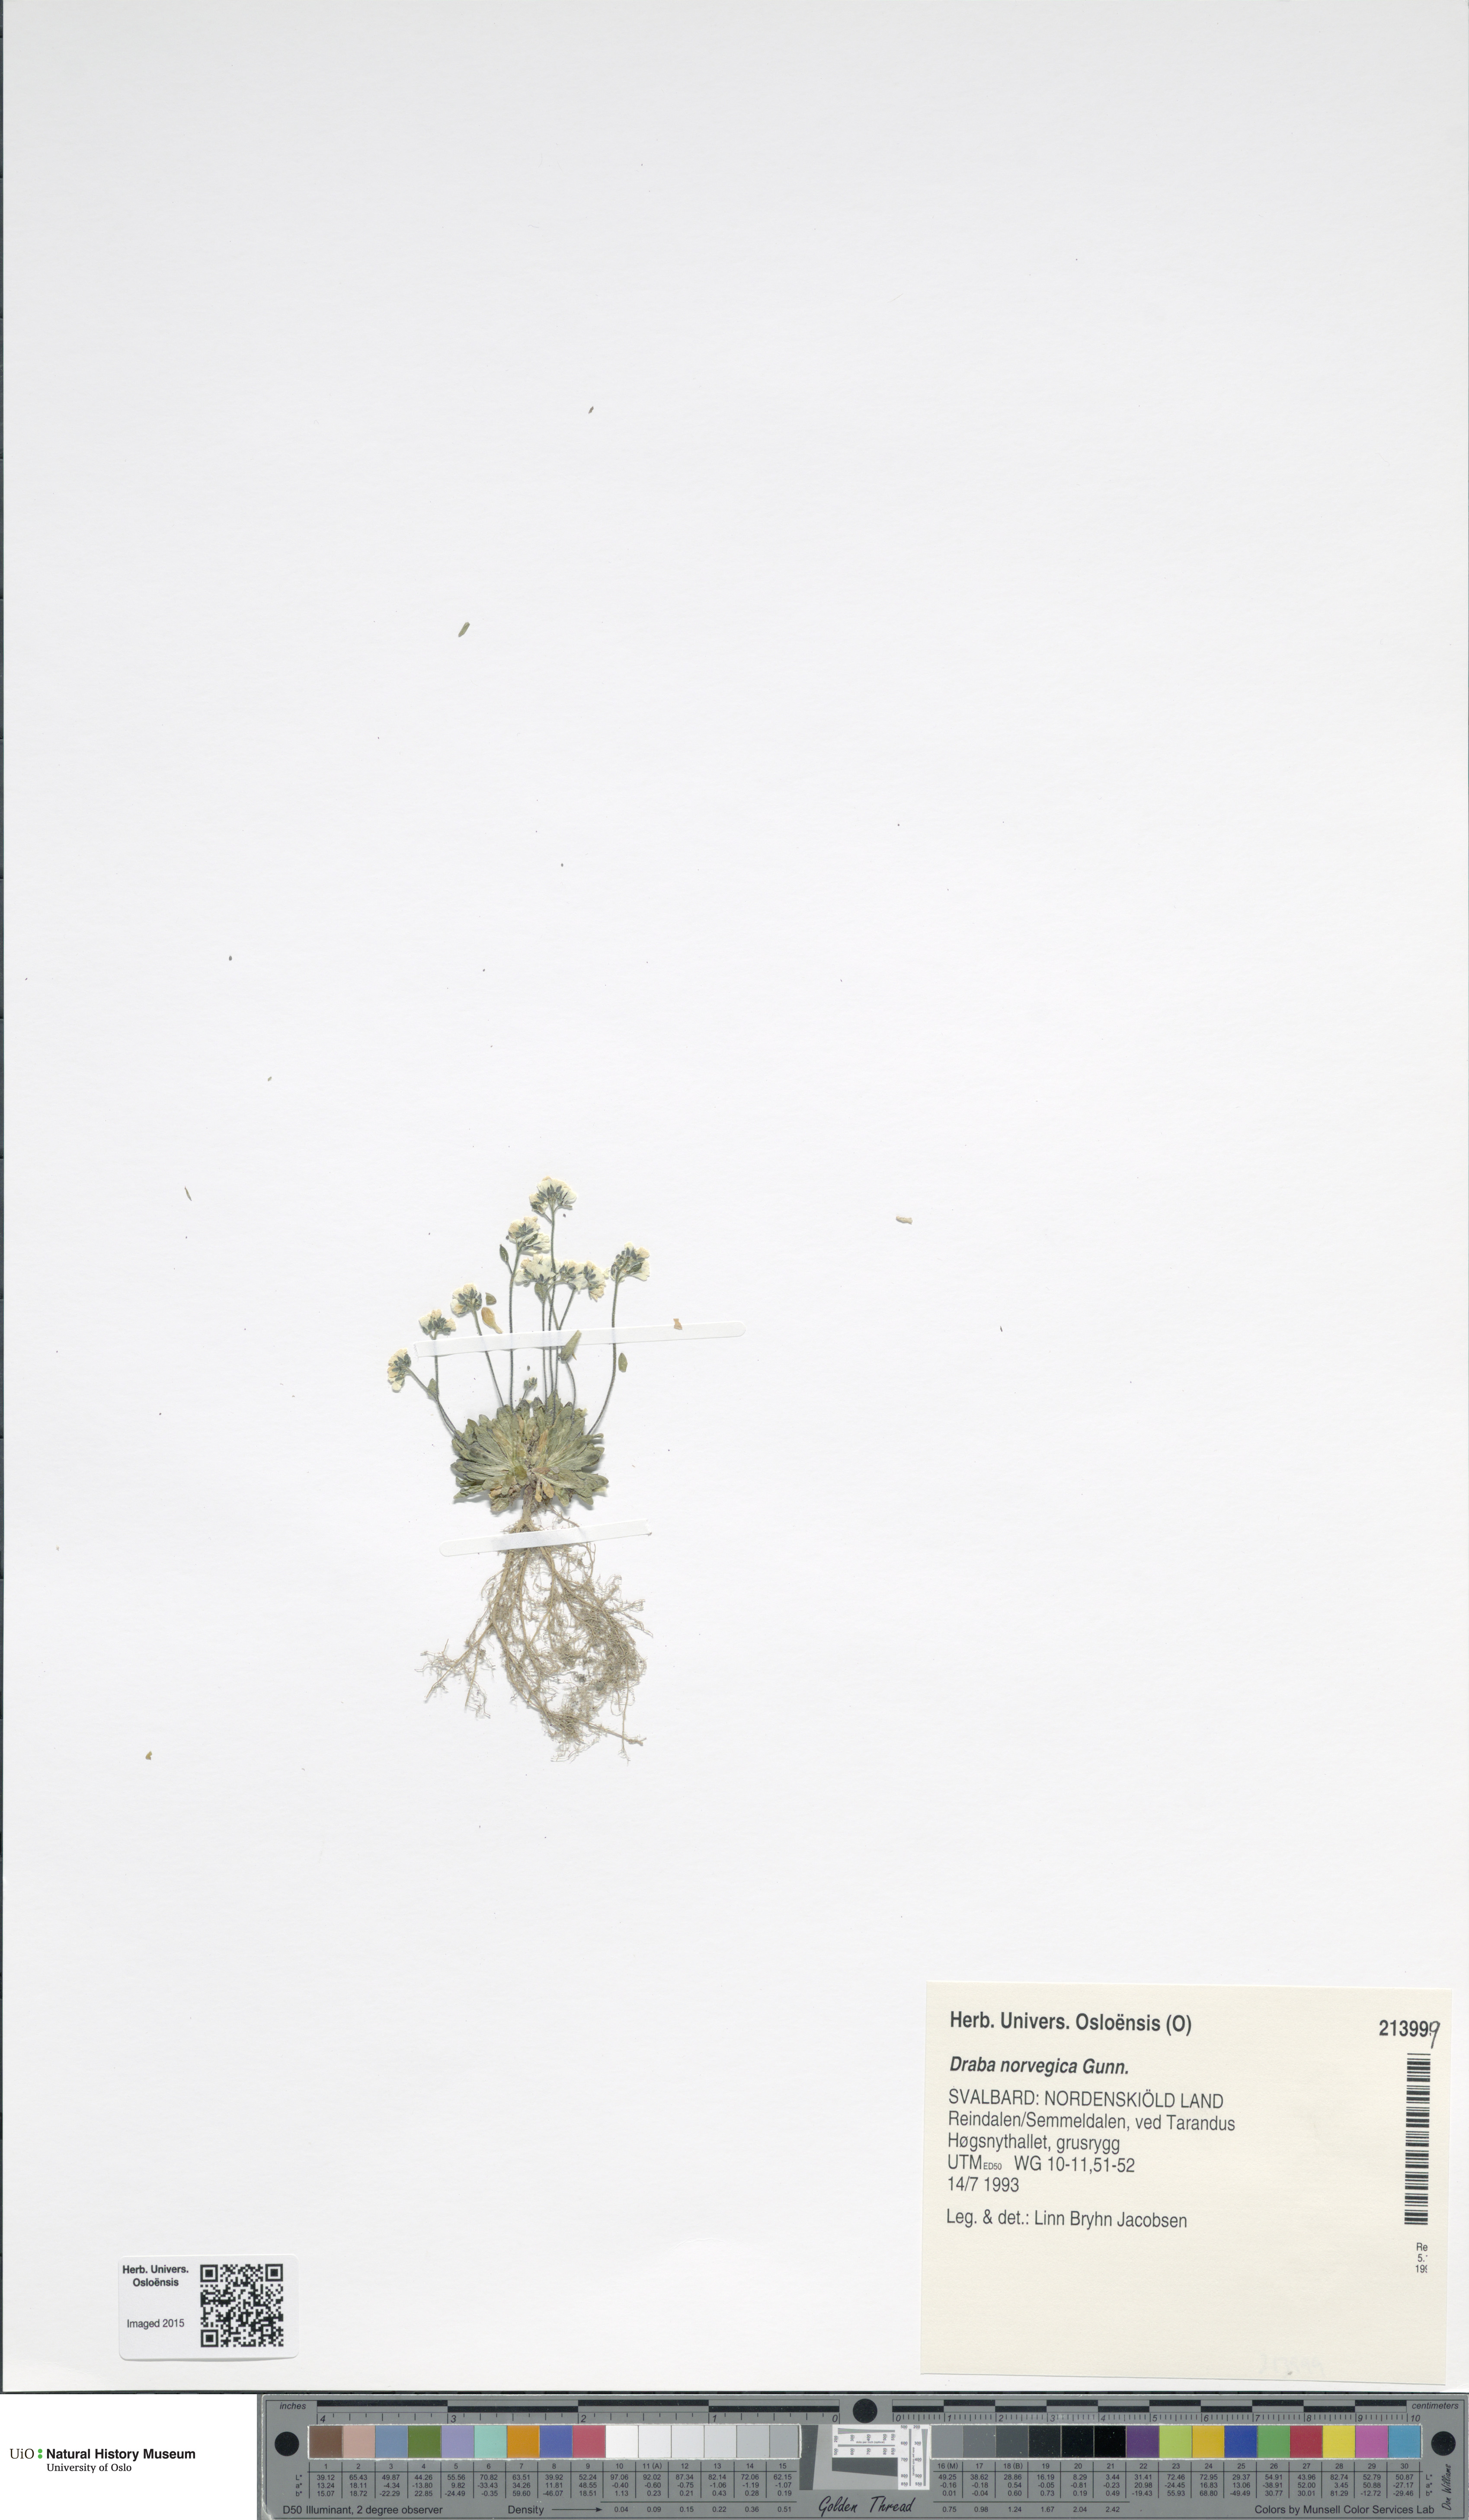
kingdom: Plantae
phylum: Tracheophyta
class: Magnoliopsida
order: Brassicales
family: Brassicaceae
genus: Draba
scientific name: Draba norvegica
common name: Rock whitlowgrass
